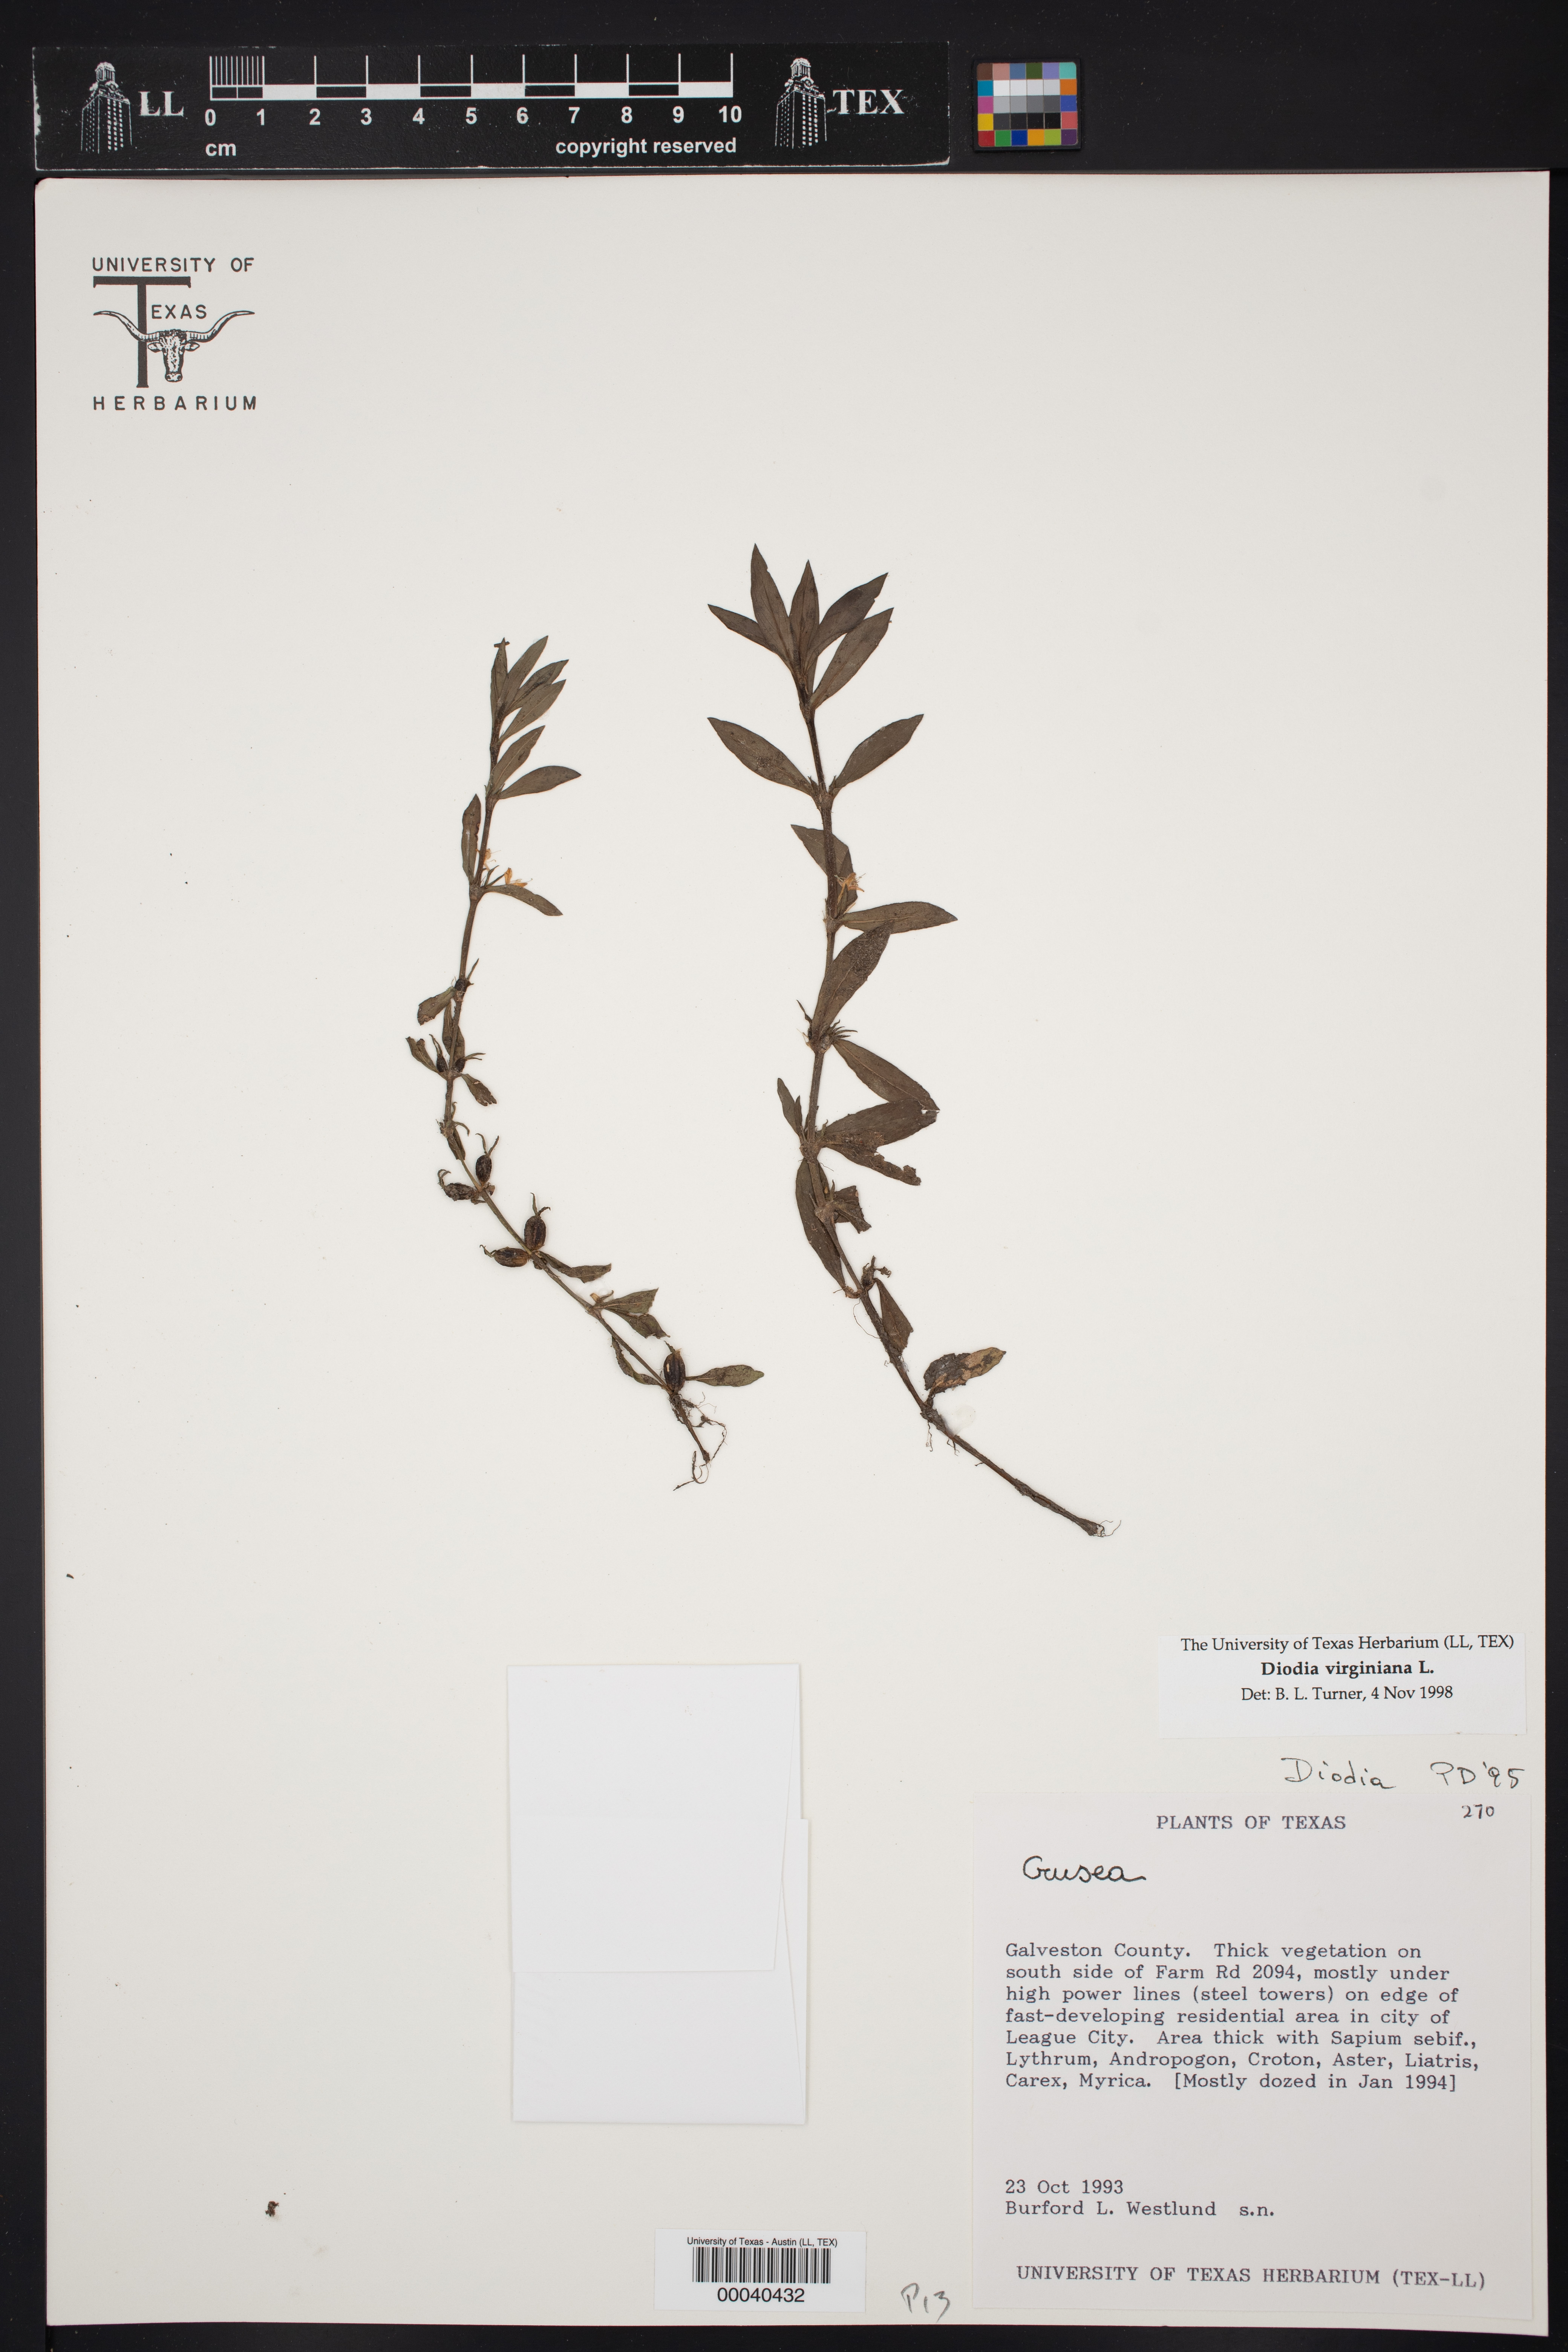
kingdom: Plantae
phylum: Tracheophyta
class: Magnoliopsida
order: Gentianales
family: Rubiaceae
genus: Diodia
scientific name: Diodia virginiana
